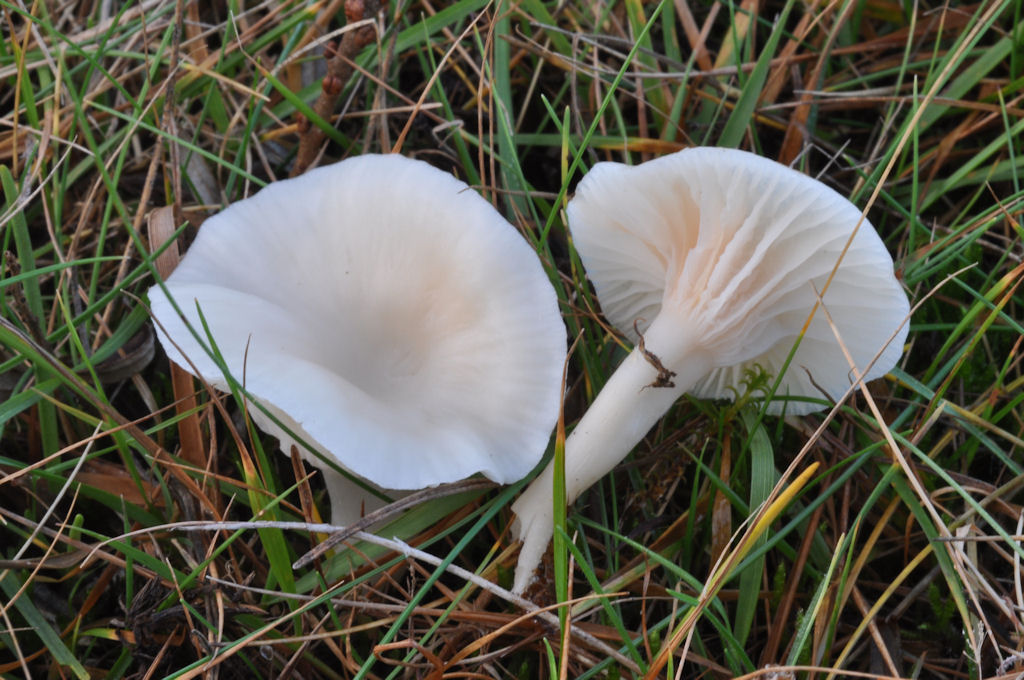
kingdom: Fungi
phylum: Basidiomycota
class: Agaricomycetes
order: Agaricales
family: Hygrophoraceae
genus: Cuphophyllus
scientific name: Cuphophyllus virgineus
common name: snehvid vokshat
